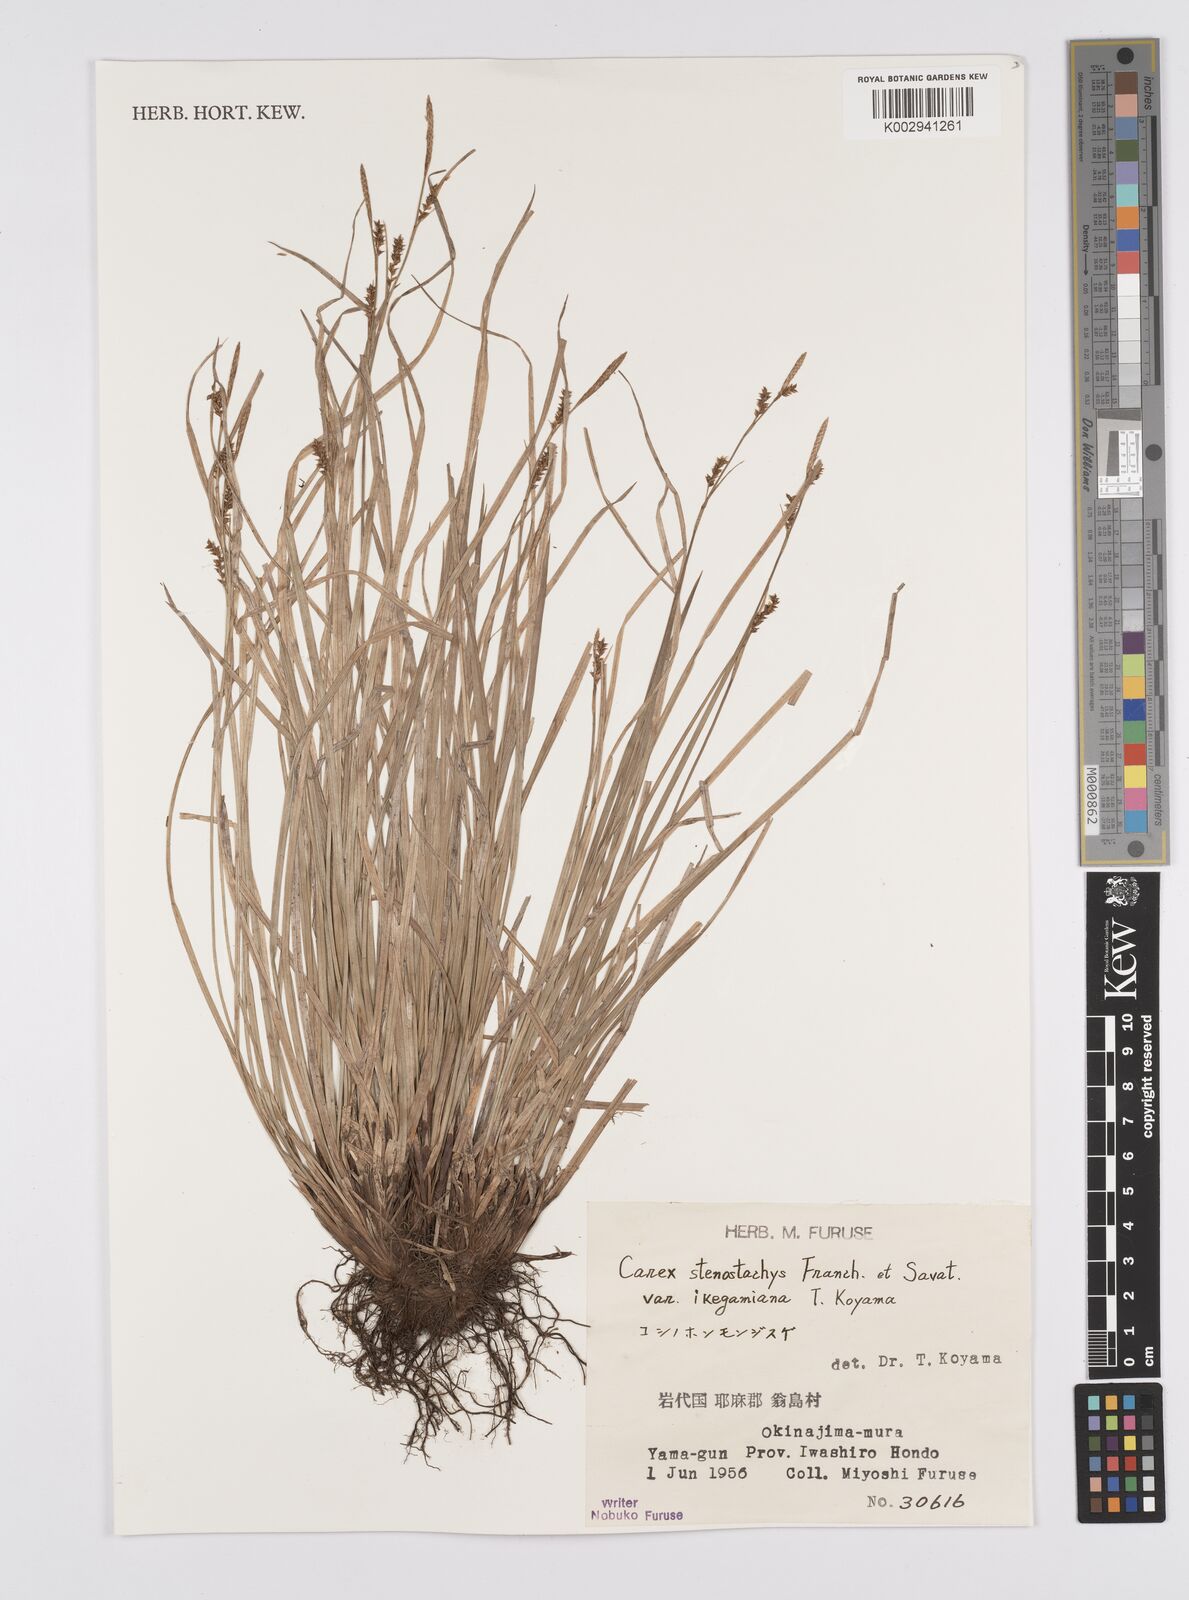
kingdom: Plantae
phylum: Tracheophyta
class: Liliopsida
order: Poales
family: Cyperaceae
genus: Carex
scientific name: Carex pisiformis
